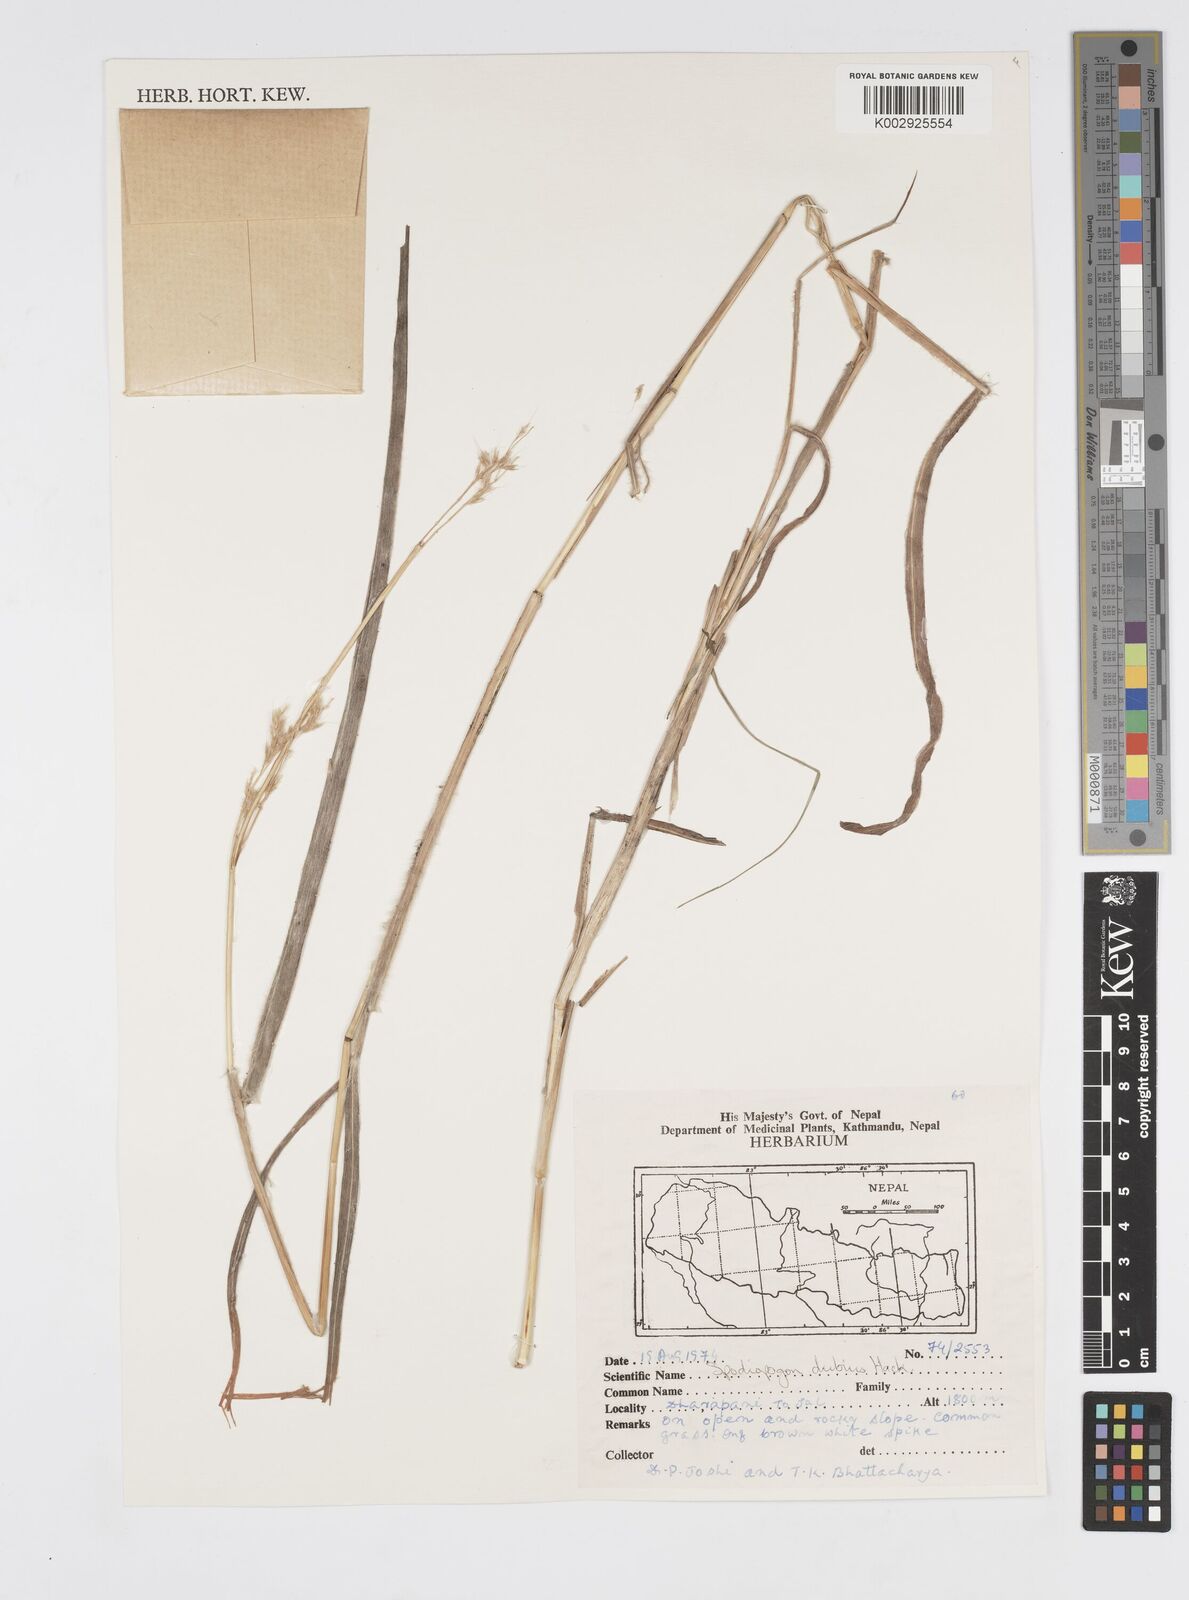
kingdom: Plantae
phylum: Tracheophyta
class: Liliopsida
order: Poales
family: Poaceae
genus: Spodiopogon
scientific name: Spodiopogon dubius
